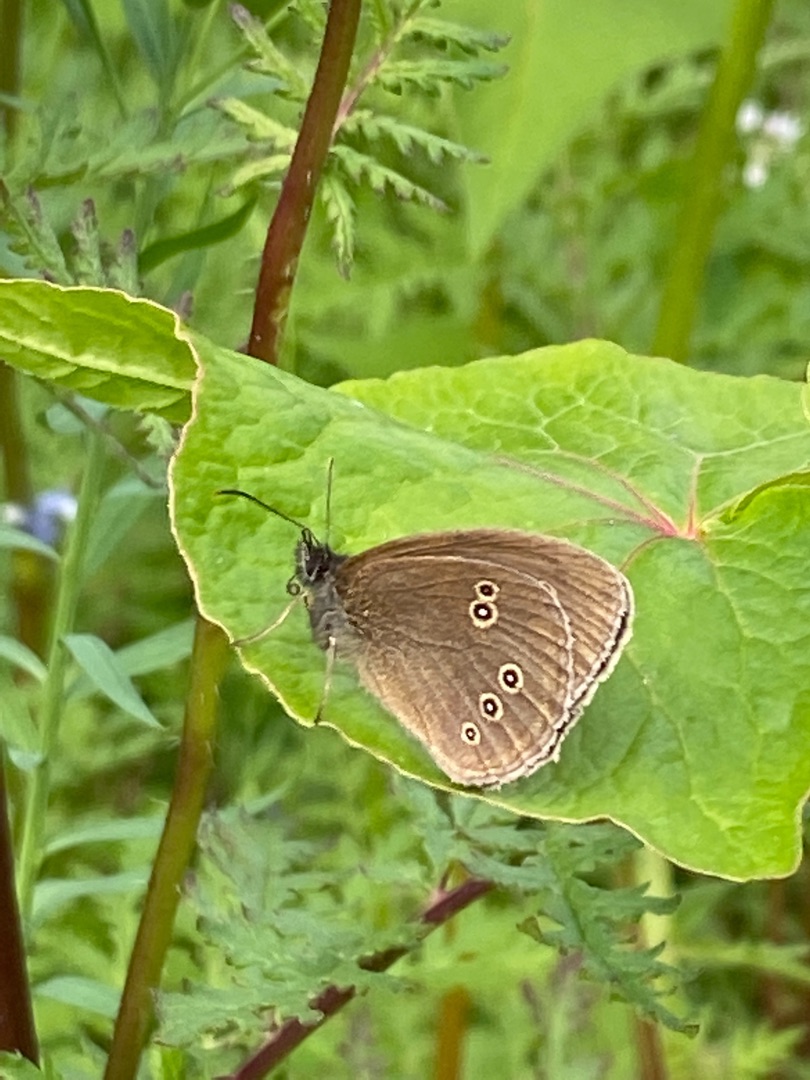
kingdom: Animalia
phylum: Arthropoda
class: Insecta
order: Lepidoptera
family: Nymphalidae
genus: Aphantopus
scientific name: Aphantopus hyperantus
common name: Engrandøje
